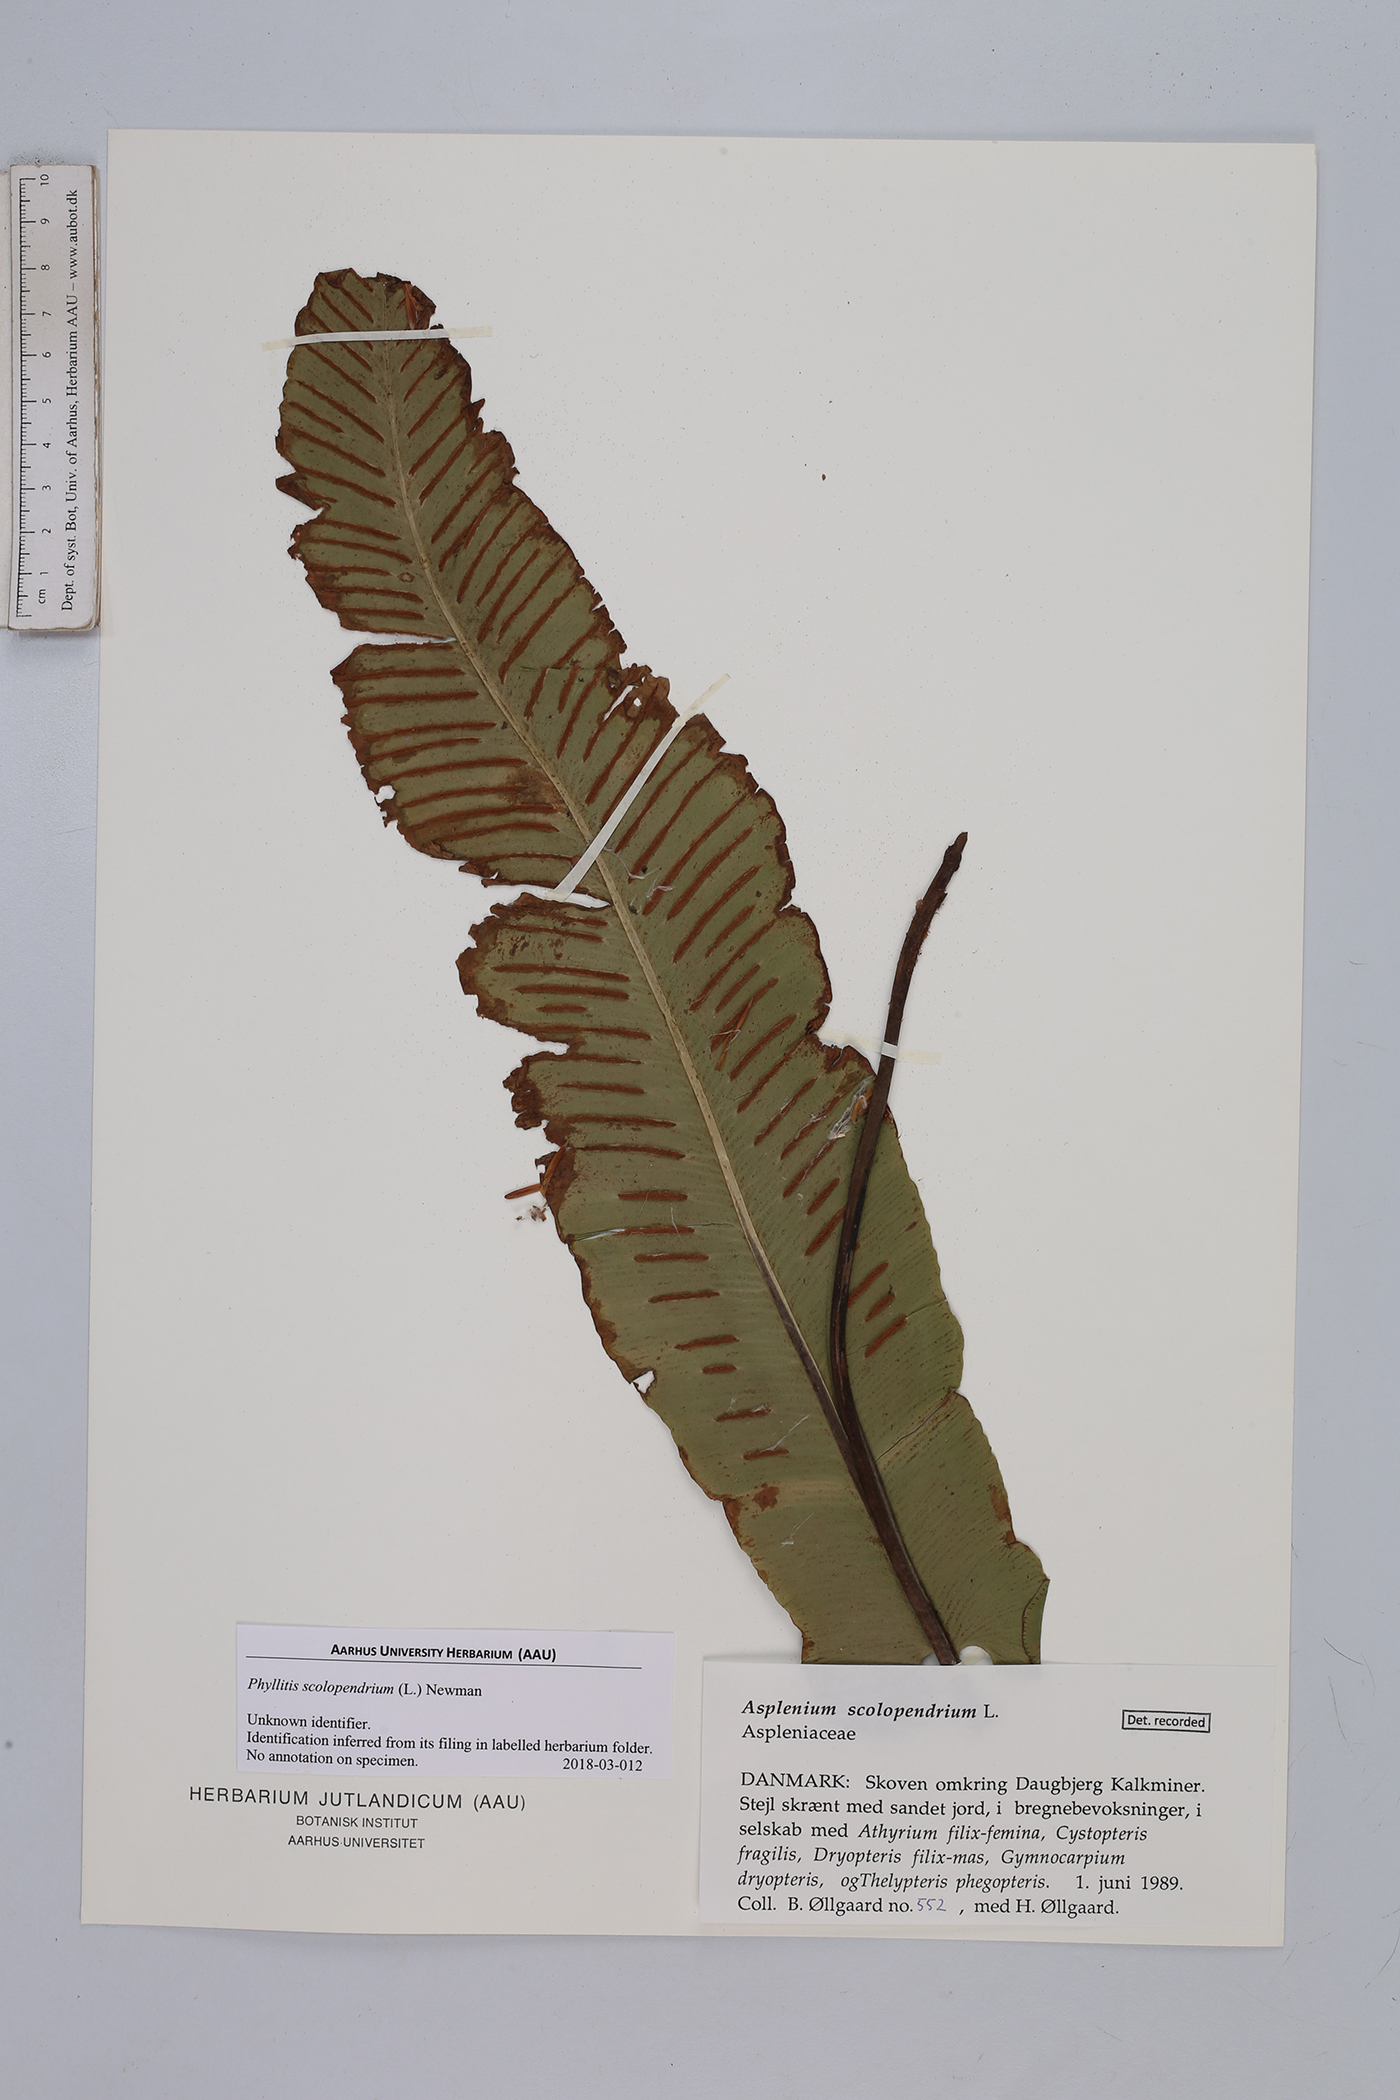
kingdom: Plantae
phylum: Tracheophyta
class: Polypodiopsida
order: Polypodiales
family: Aspleniaceae
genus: Asplenium
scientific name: Asplenium scolopendrium
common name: Hart's-tongue fern
